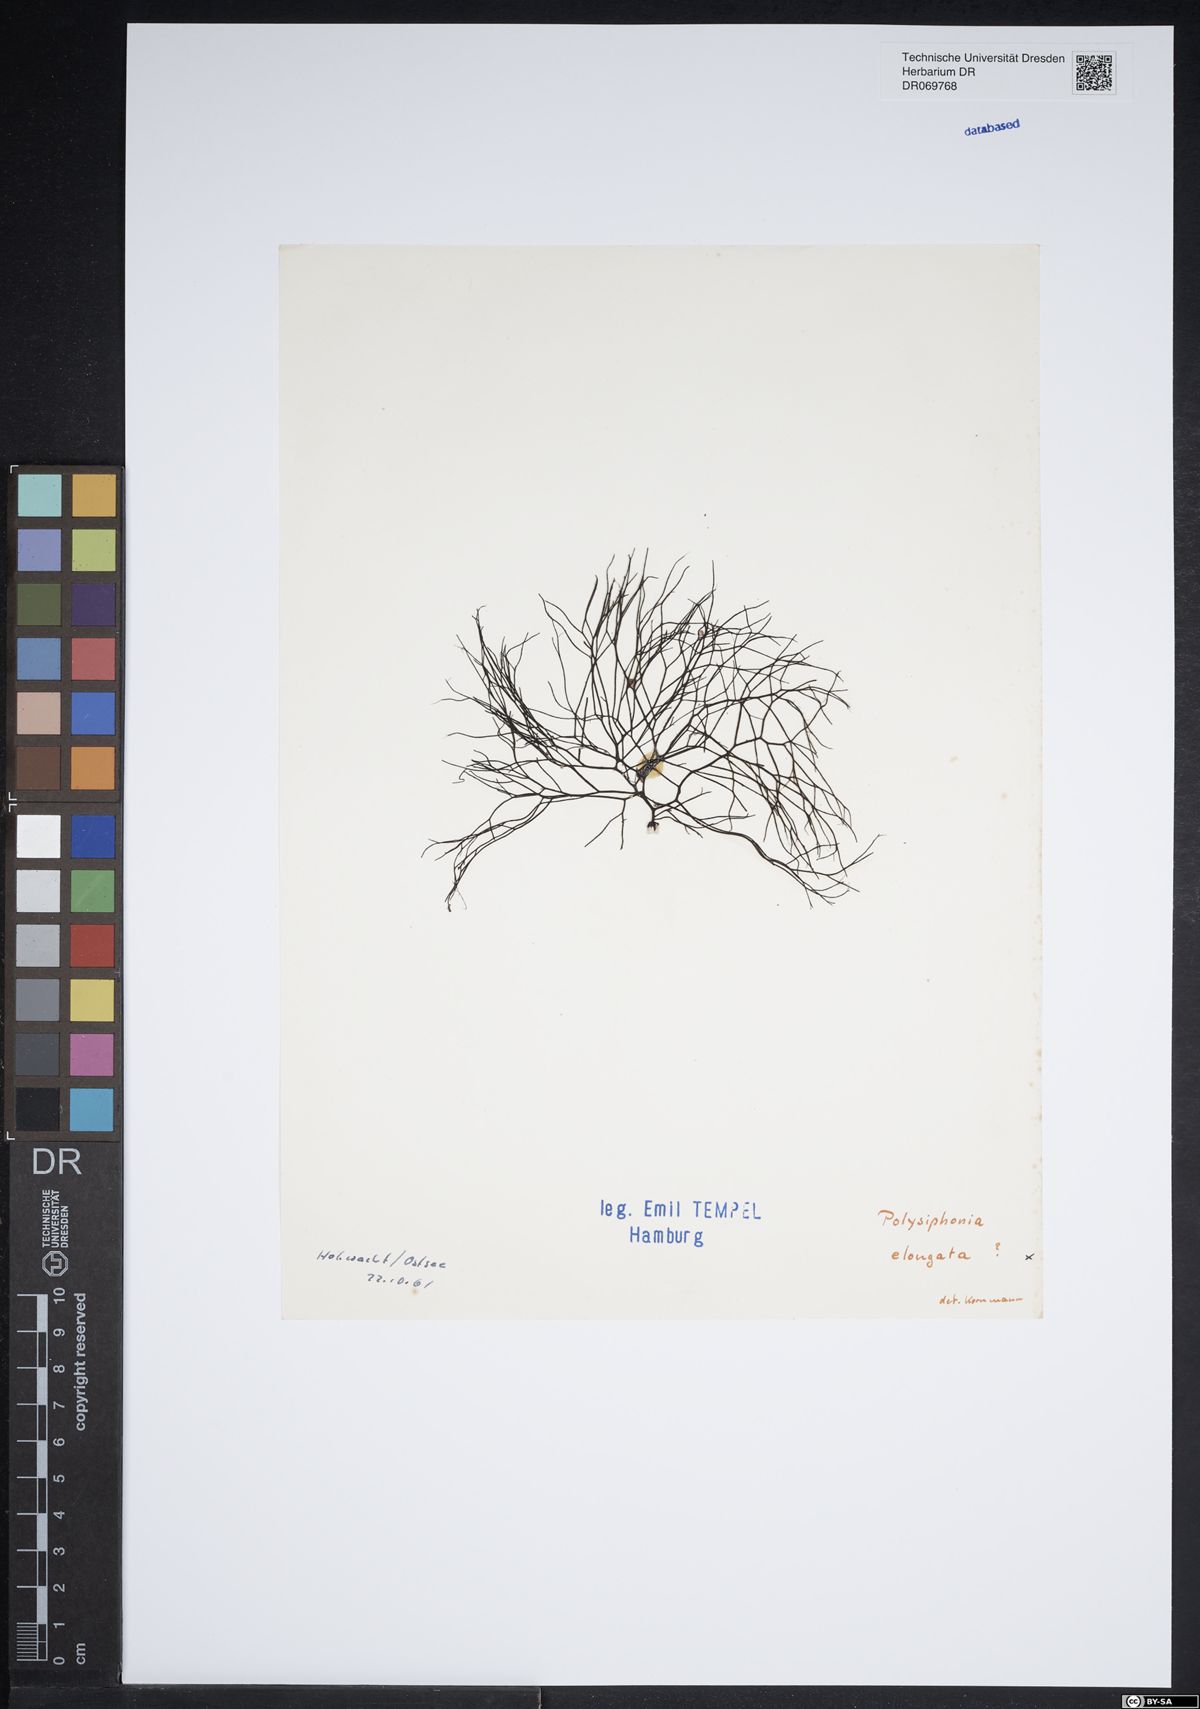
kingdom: Plantae
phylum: Rhodophyta
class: Florideophyceae
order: Ceramiales
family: Rhodomelaceae
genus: Vertebrata
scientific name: Vertebrata spec
